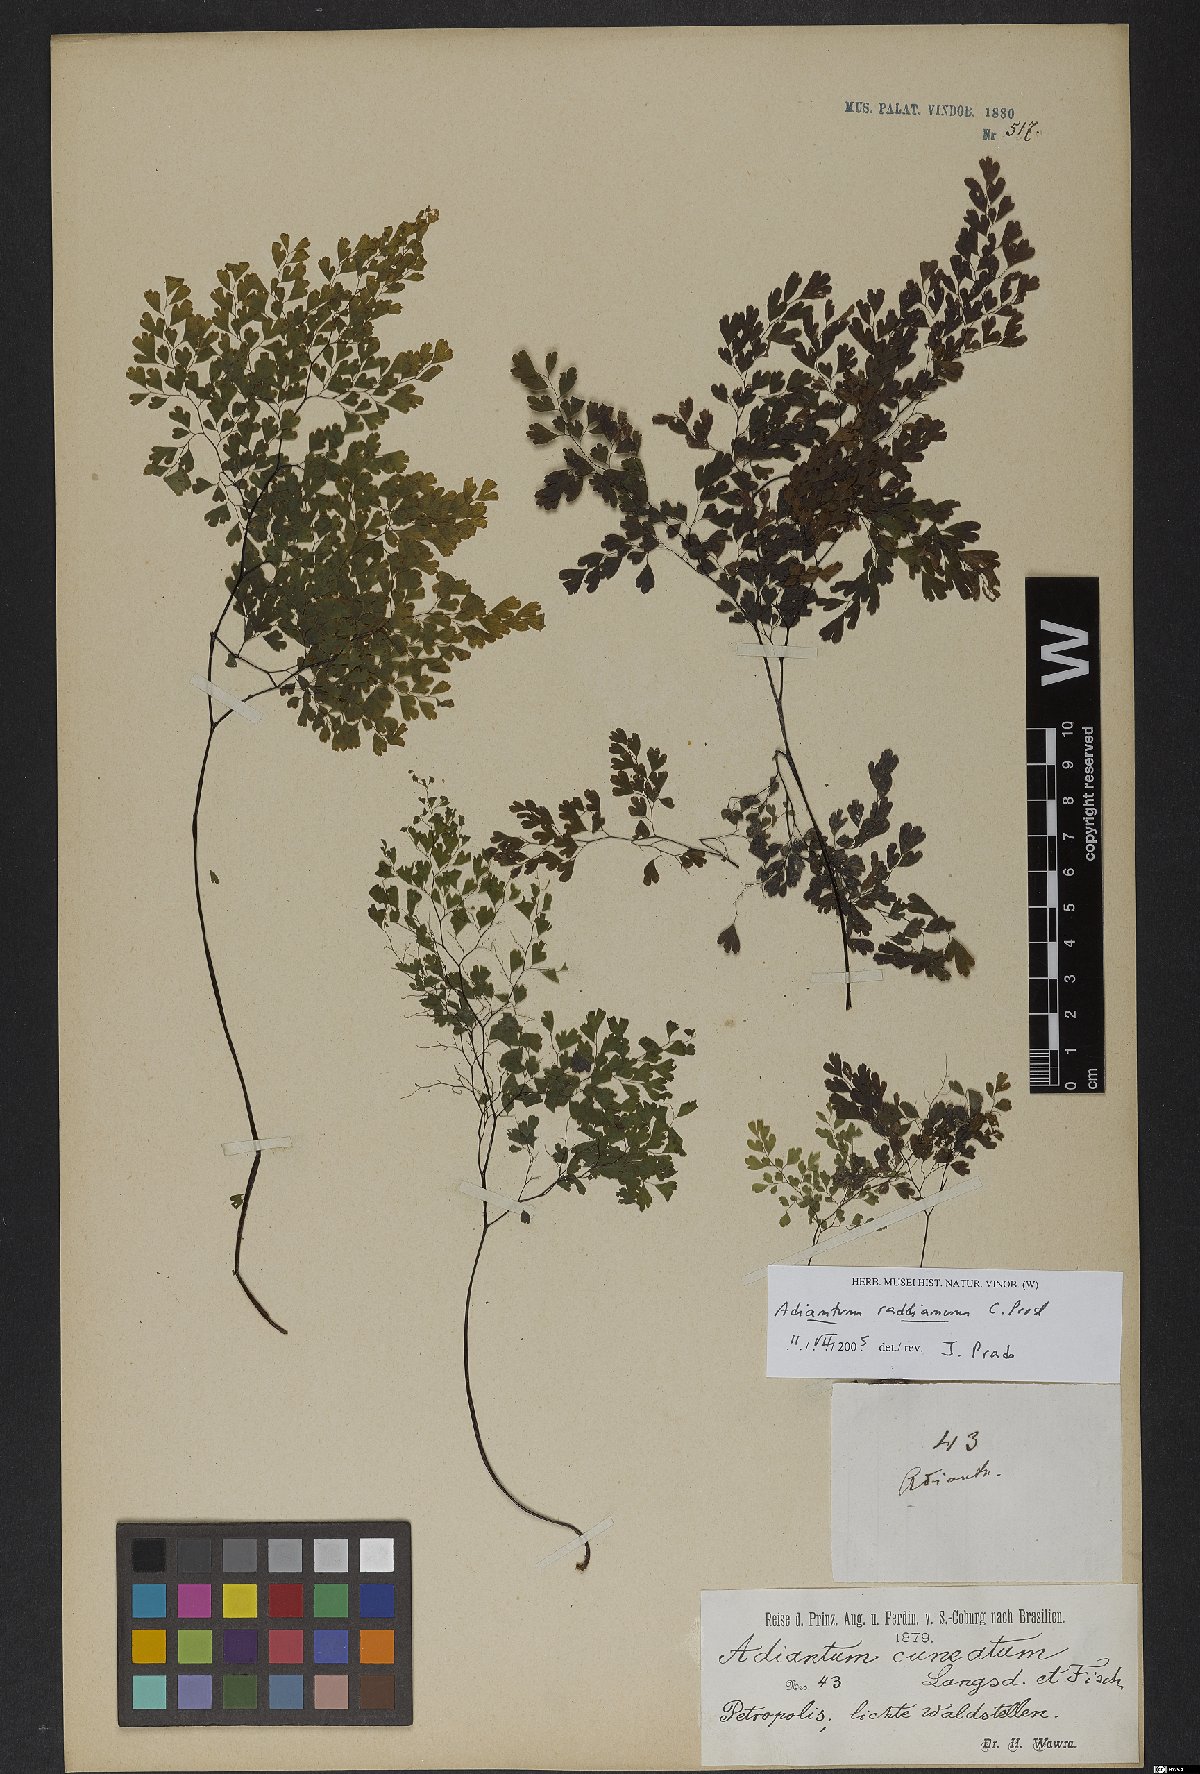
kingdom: Plantae
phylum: Tracheophyta
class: Polypodiopsida
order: Polypodiales
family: Pteridaceae
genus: Adiantum
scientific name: Adiantum raddianum
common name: Delta maidenhair fern
